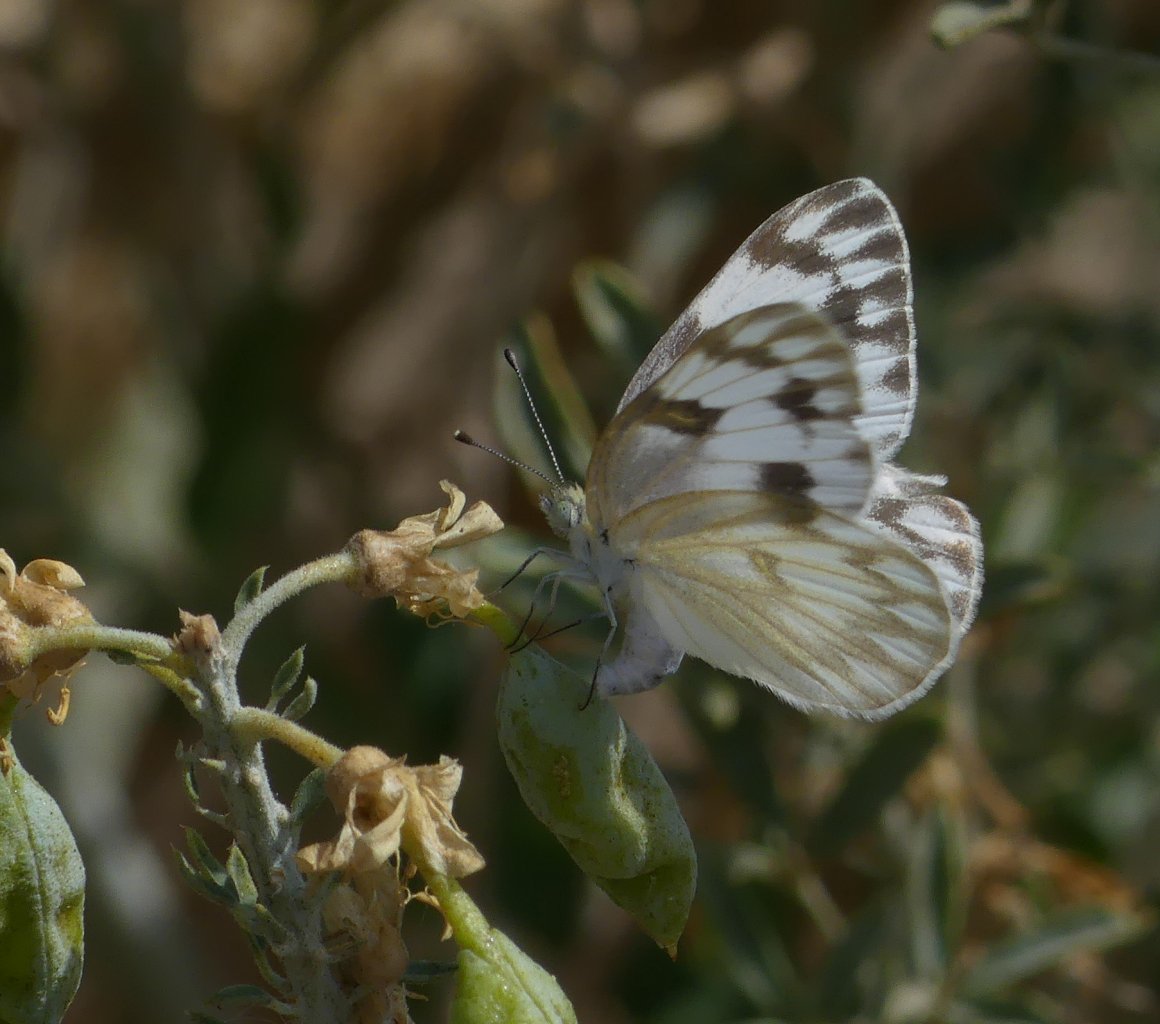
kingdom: Animalia
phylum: Arthropoda
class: Insecta
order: Lepidoptera
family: Pieridae
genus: Pontia
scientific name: Pontia protodice
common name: Checkered White
